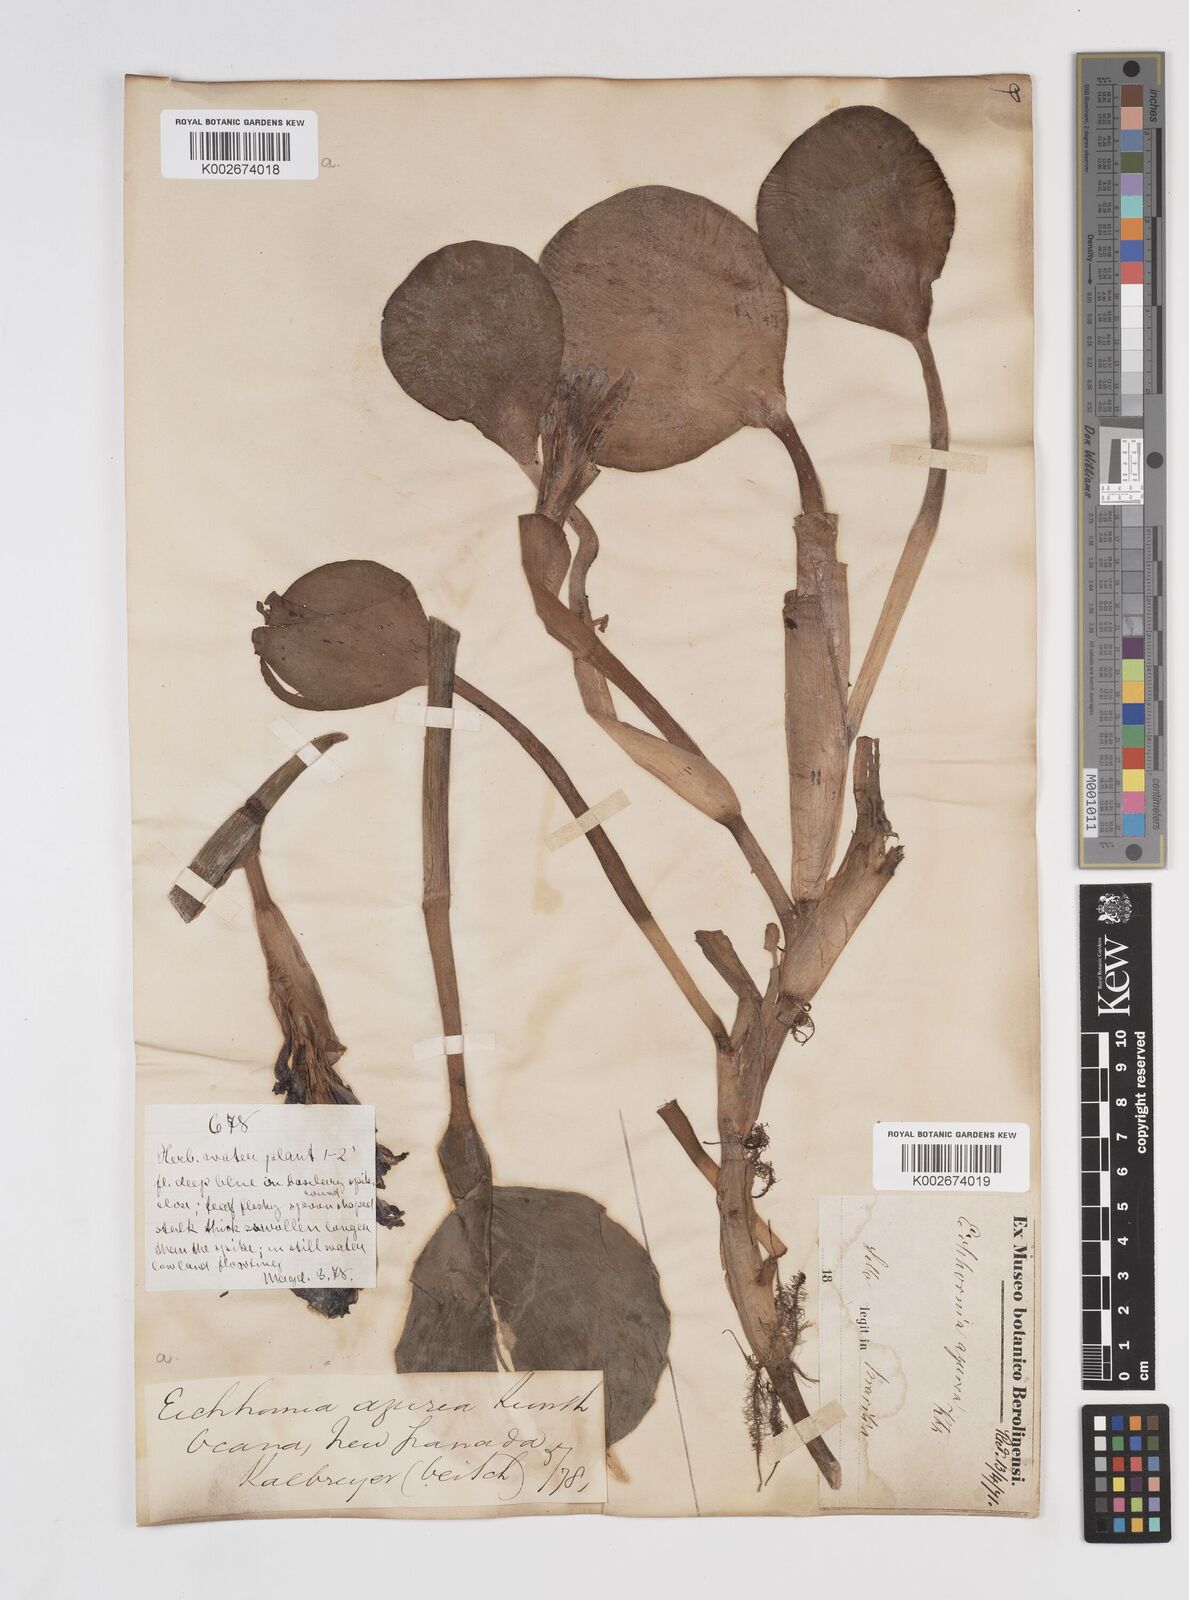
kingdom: Plantae
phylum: Tracheophyta
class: Liliopsida
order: Commelinales
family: Pontederiaceae
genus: Pontederia
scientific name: Pontederia azurea
